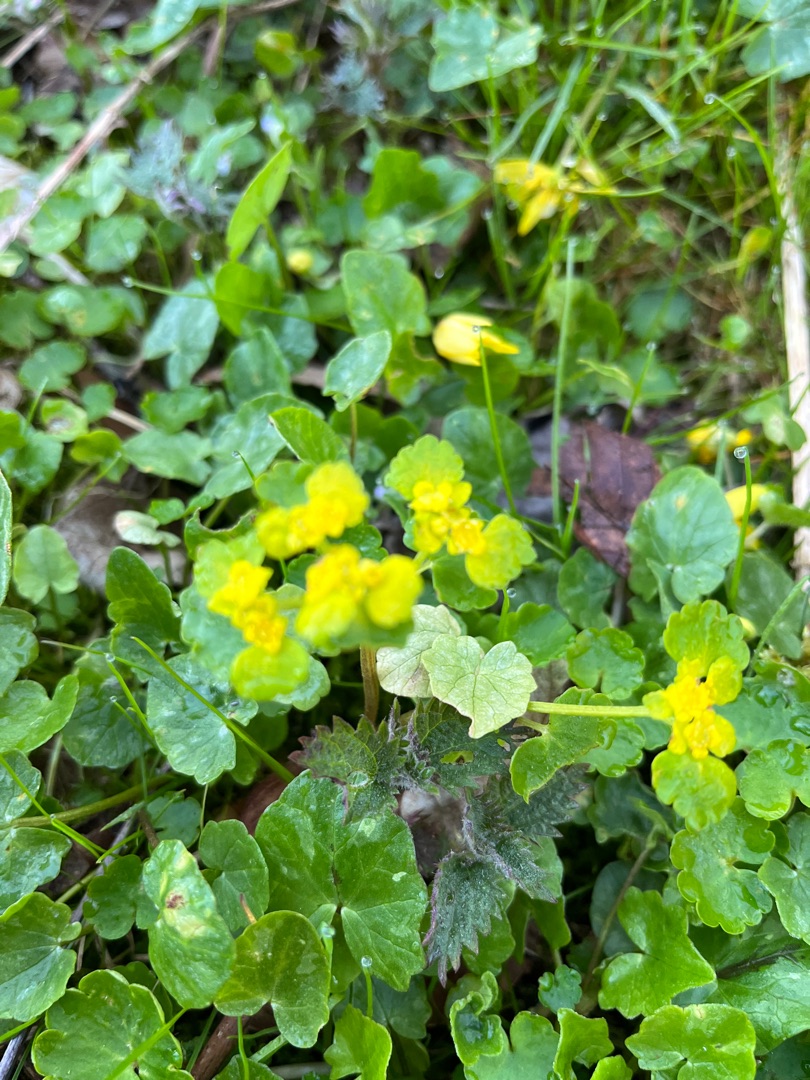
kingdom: Plantae
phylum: Tracheophyta
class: Magnoliopsida
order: Saxifragales
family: Saxifragaceae
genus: Chrysosplenium
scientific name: Chrysosplenium alternifolium
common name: Almindelig milturt
